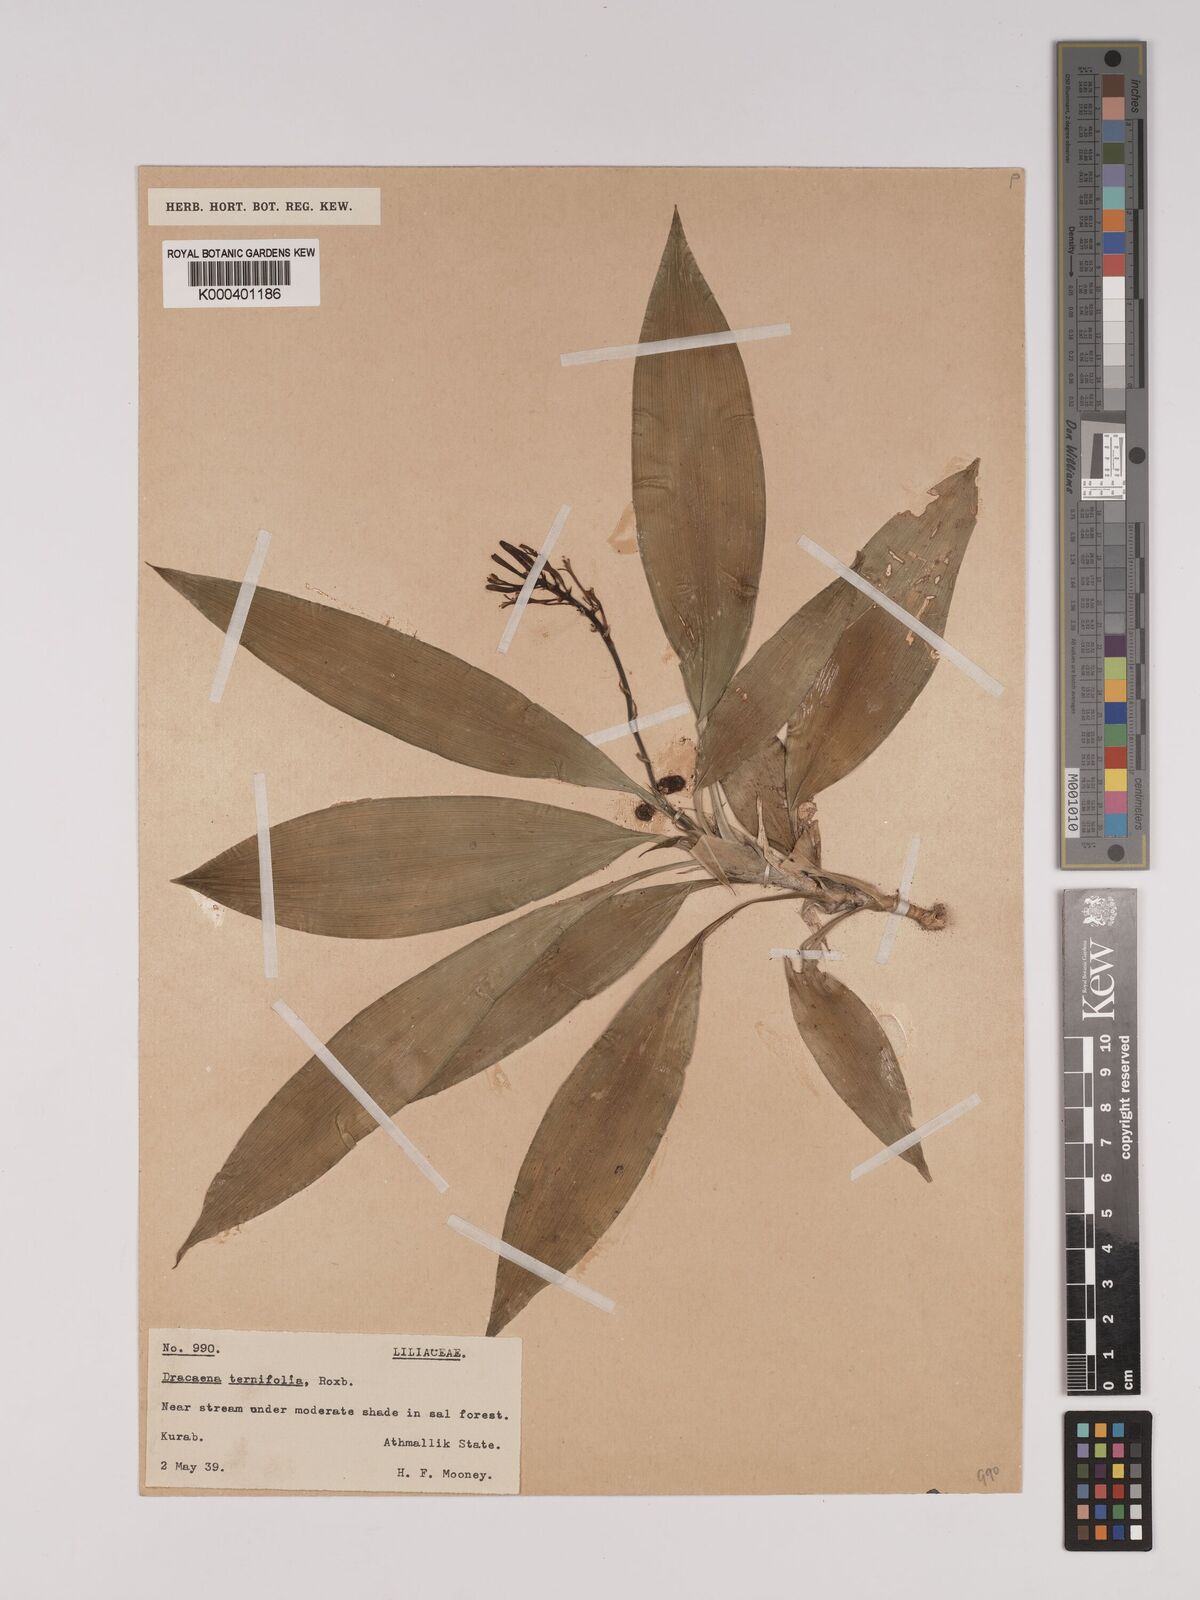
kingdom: Plantae
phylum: Tracheophyta
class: Liliopsida
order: Asparagales
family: Asparagaceae
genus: Dracaena
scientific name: Dracaena terniflora
